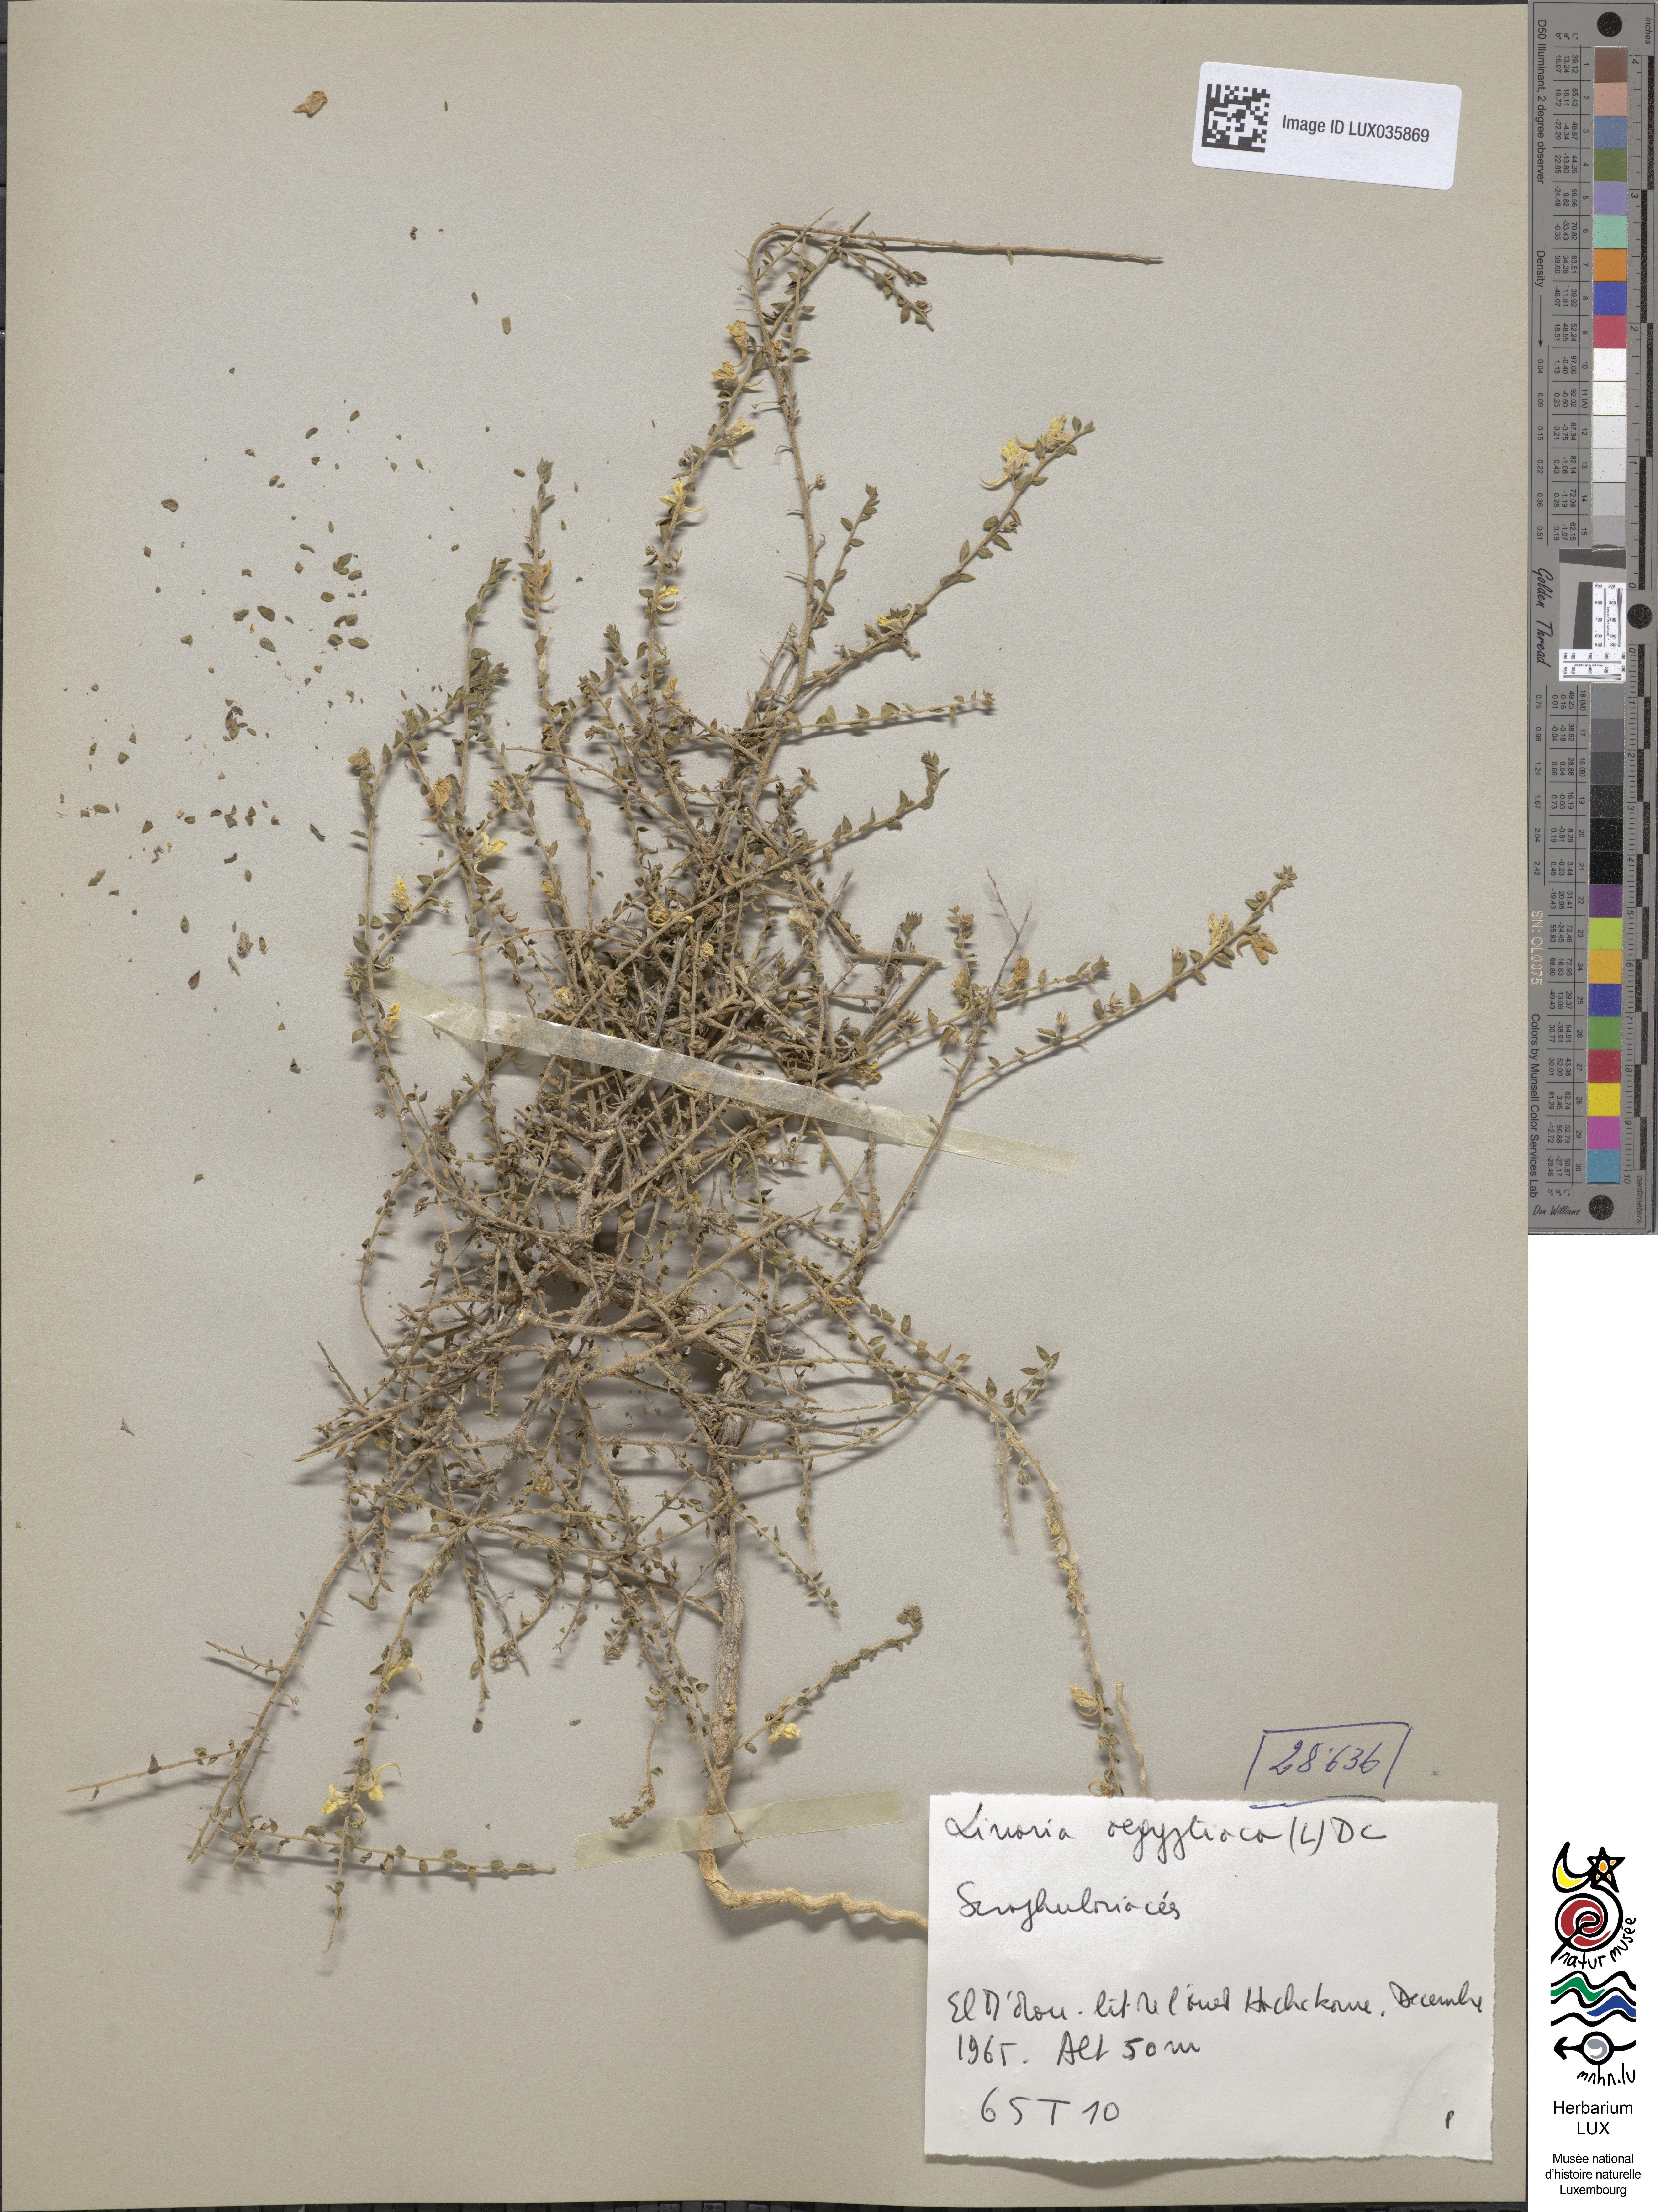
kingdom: Plantae
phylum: Tracheophyta
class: Magnoliopsida
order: Lamiales
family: Plantaginaceae
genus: Kickxia
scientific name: Kickxia aegyptiaca
